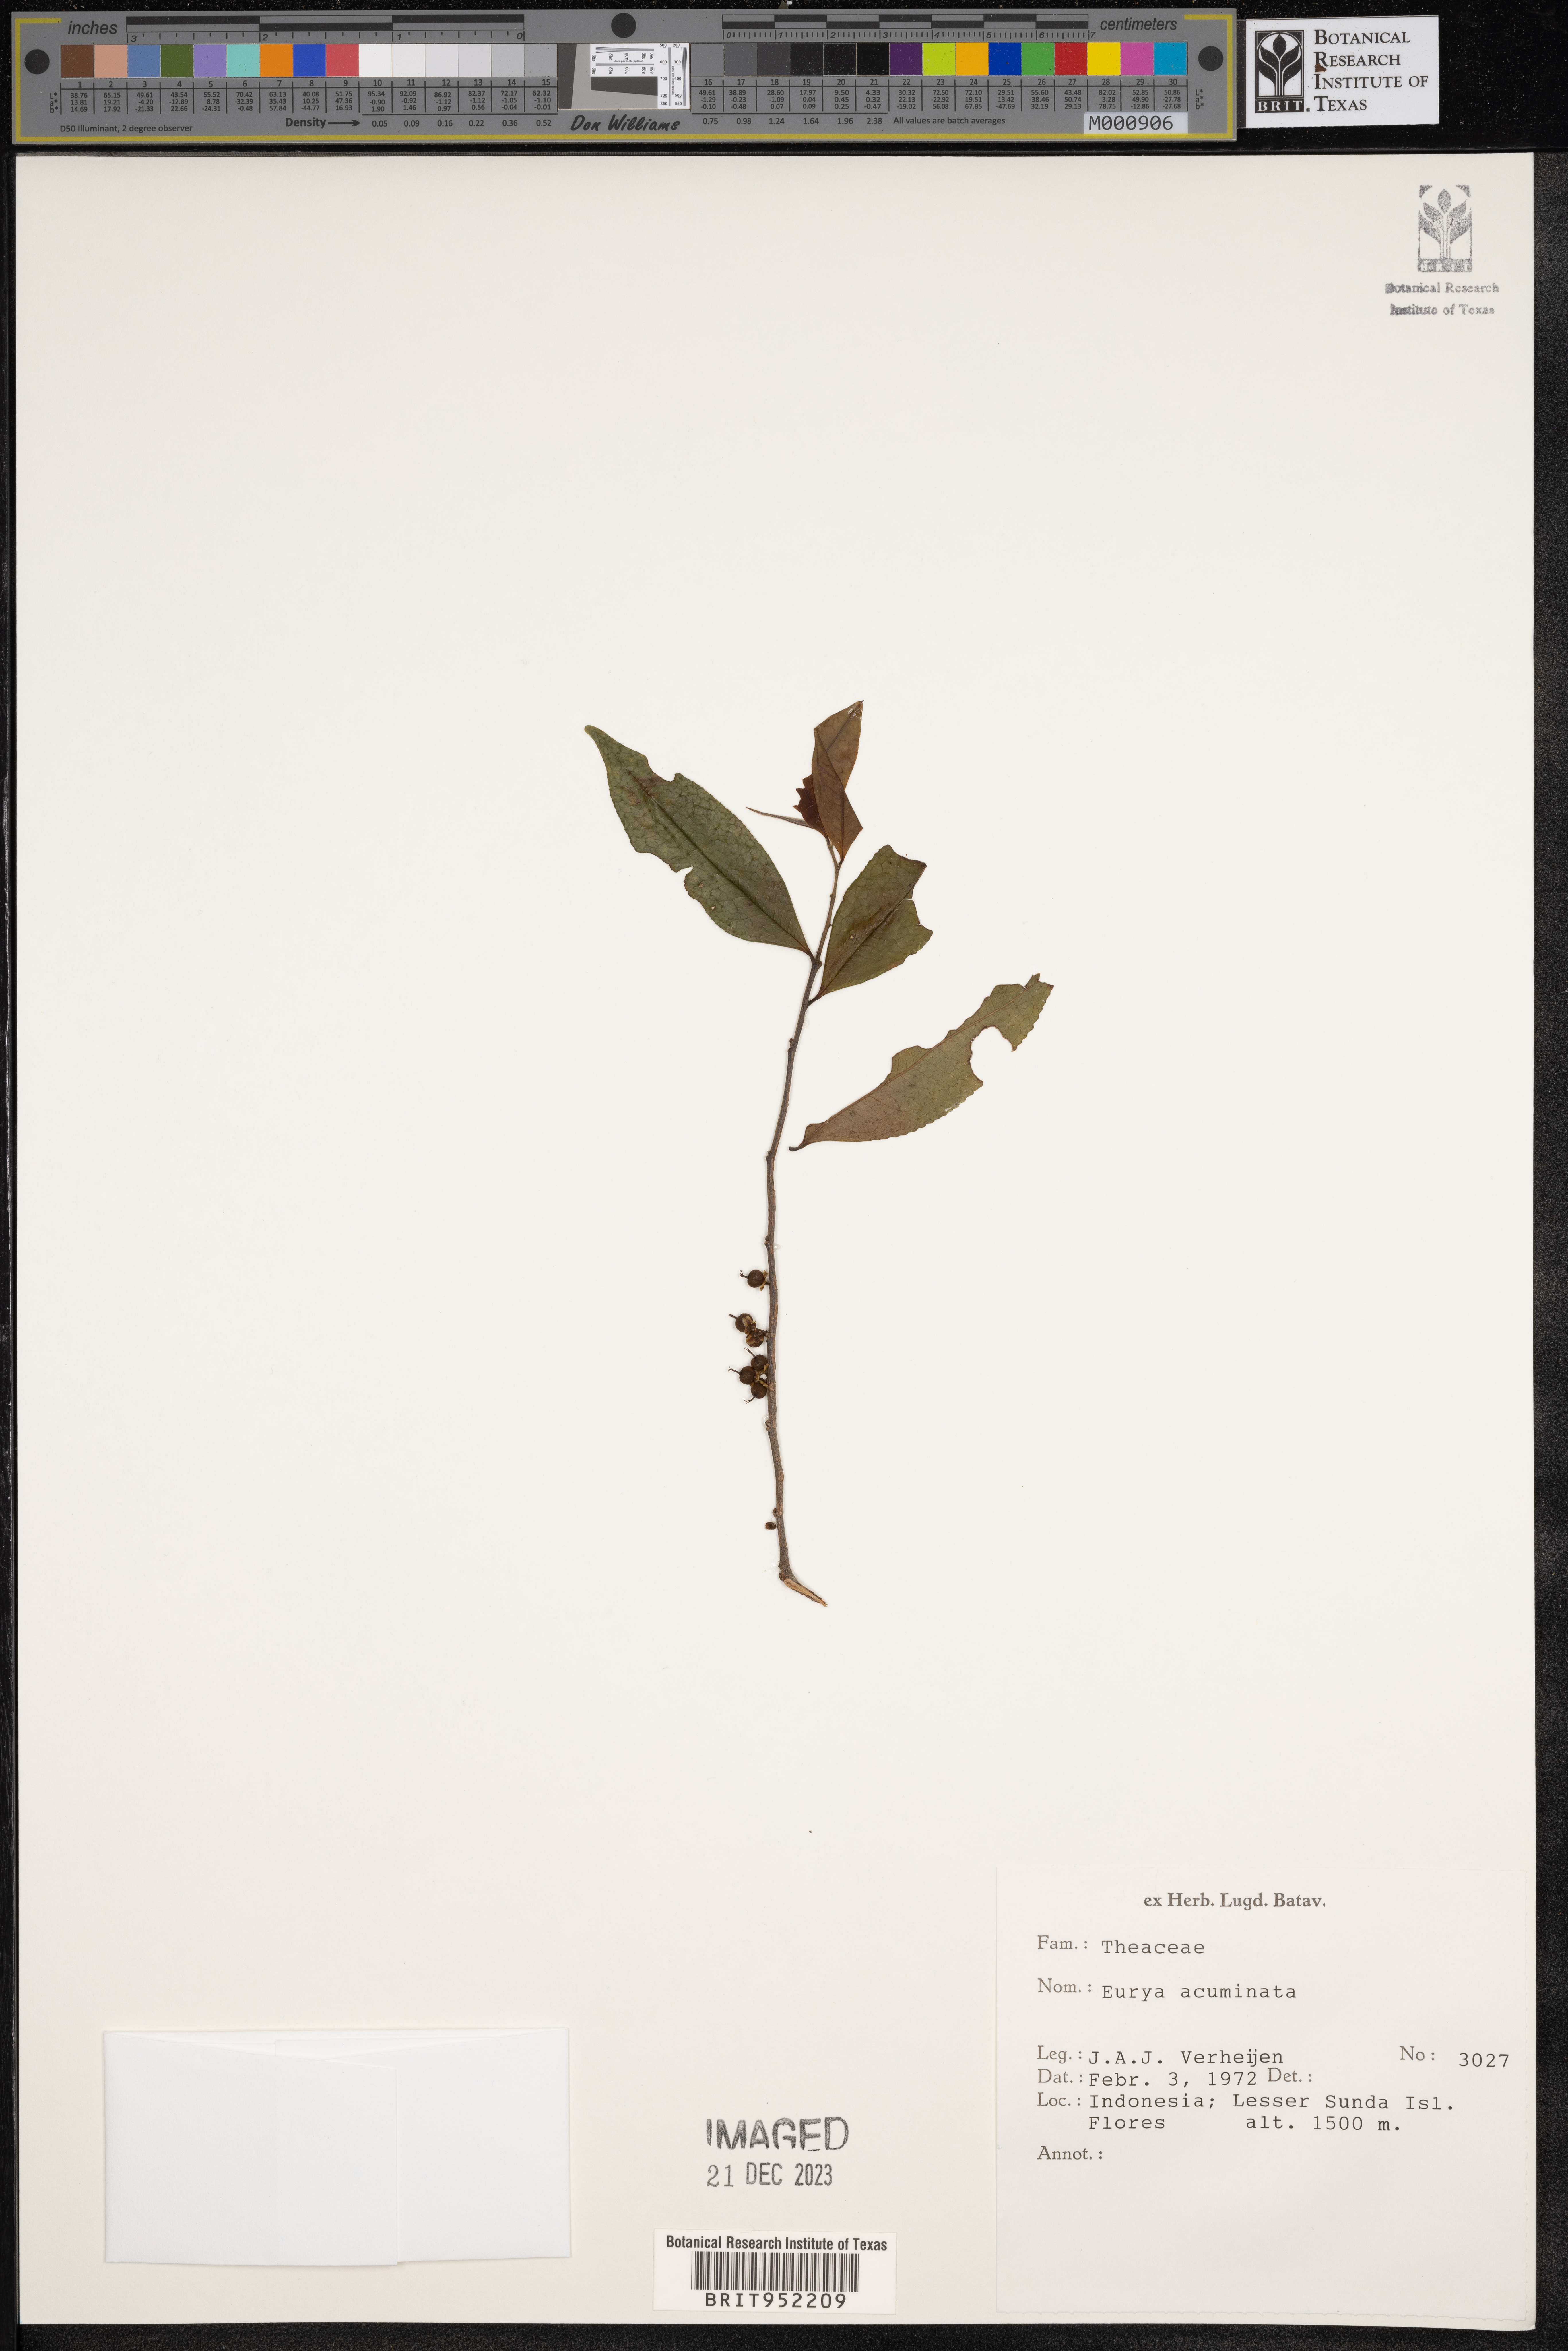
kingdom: Plantae
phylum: Tracheophyta
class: Magnoliopsida
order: Ericales
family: Pentaphylacaceae
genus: Eurya
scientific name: Eurya
